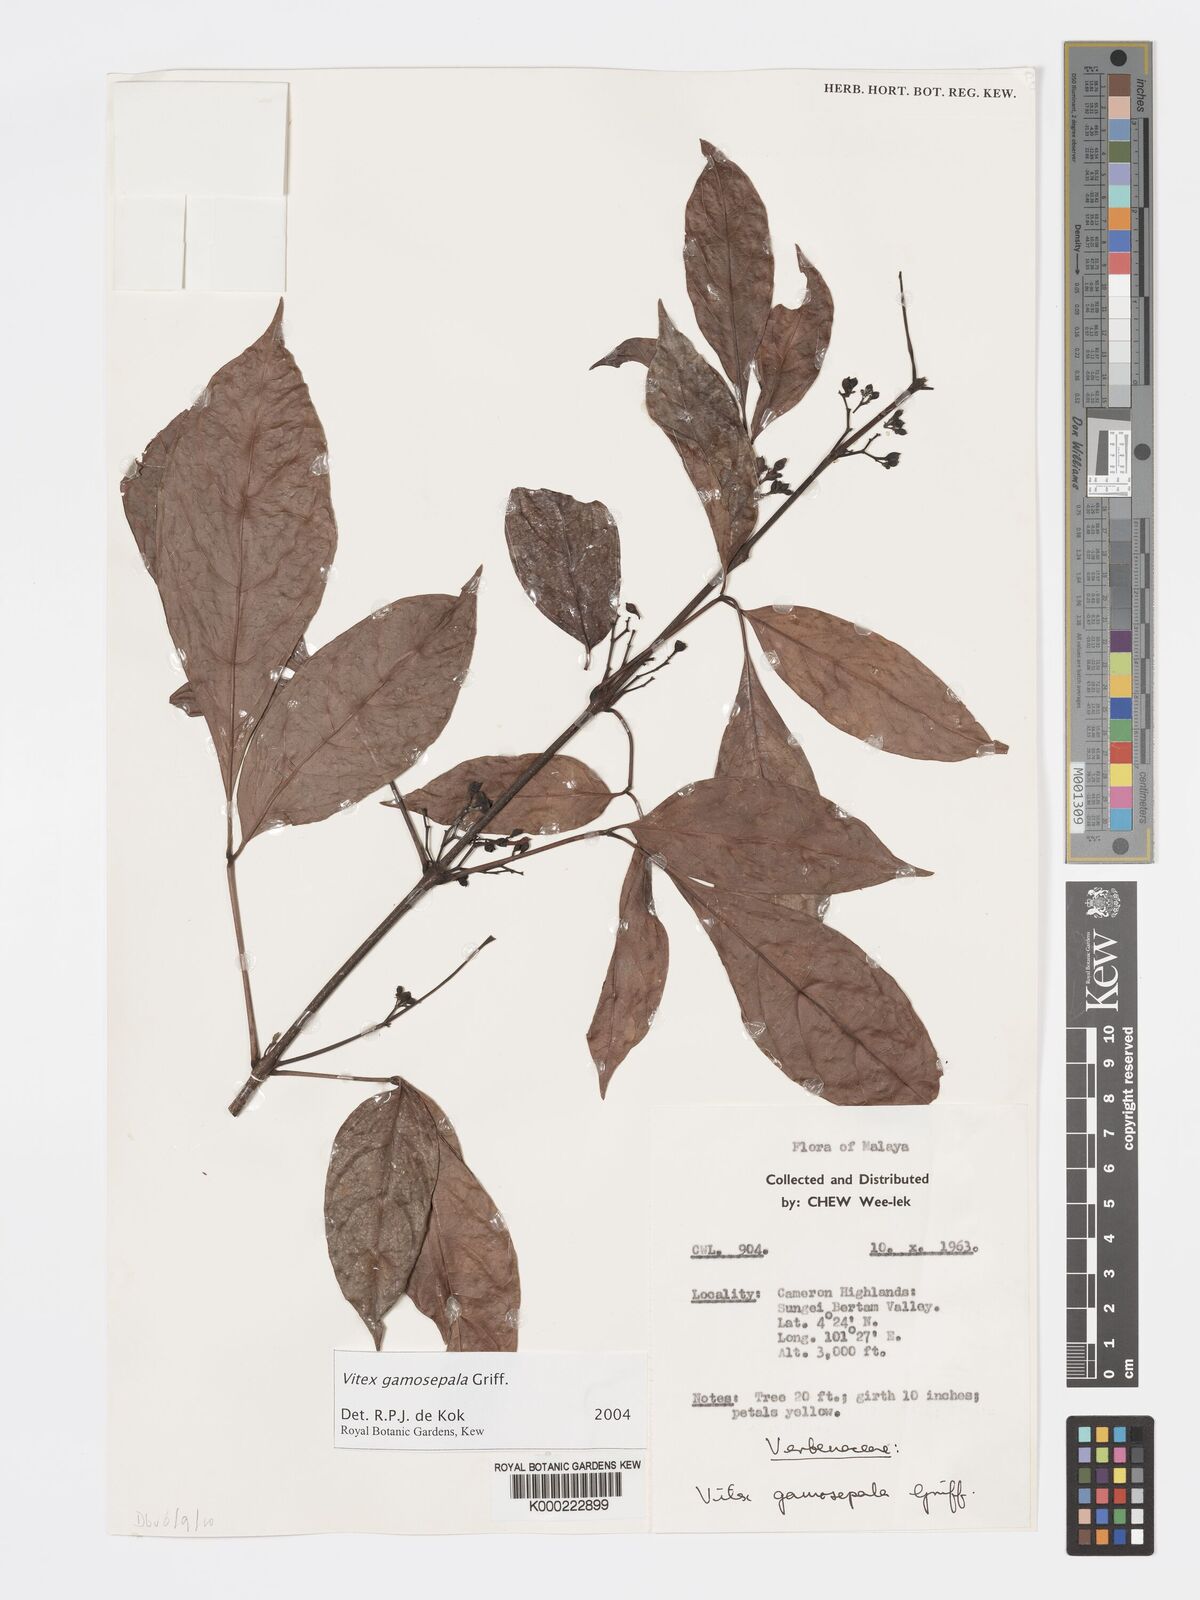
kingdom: Plantae
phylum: Tracheophyta
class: Magnoliopsida
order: Lamiales
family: Lamiaceae
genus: Vitex
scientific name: Vitex gamosepala
